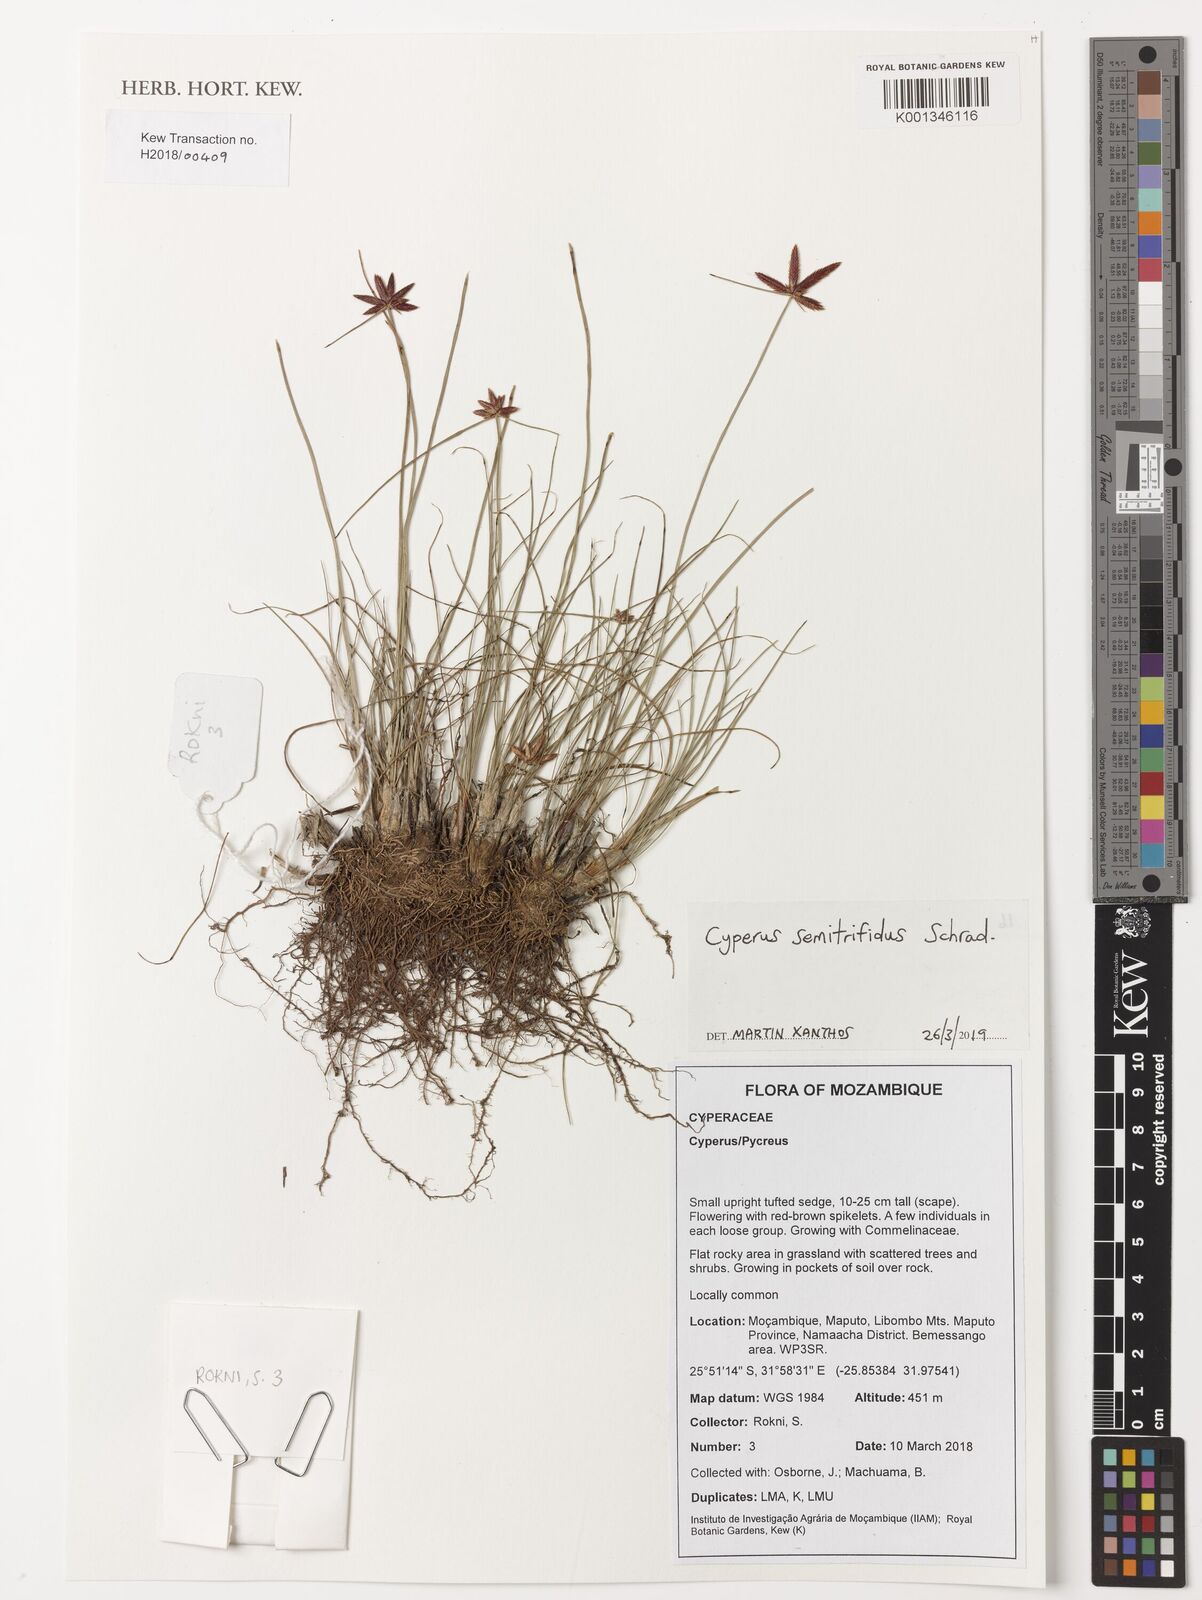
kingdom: Plantae
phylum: Tracheophyta
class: Liliopsida
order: Poales
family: Cyperaceae
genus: Cyperus
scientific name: Cyperus semitrifidus
